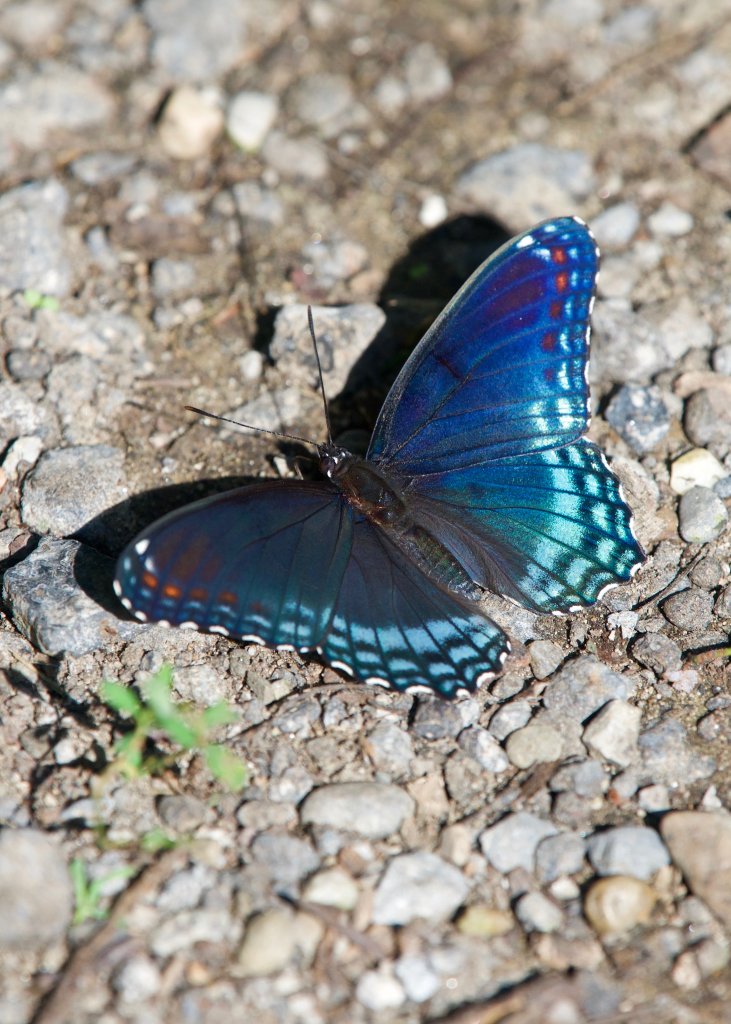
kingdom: Animalia
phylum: Arthropoda
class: Insecta
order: Lepidoptera
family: Nymphalidae
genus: Limenitis
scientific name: Limenitis astyanax
